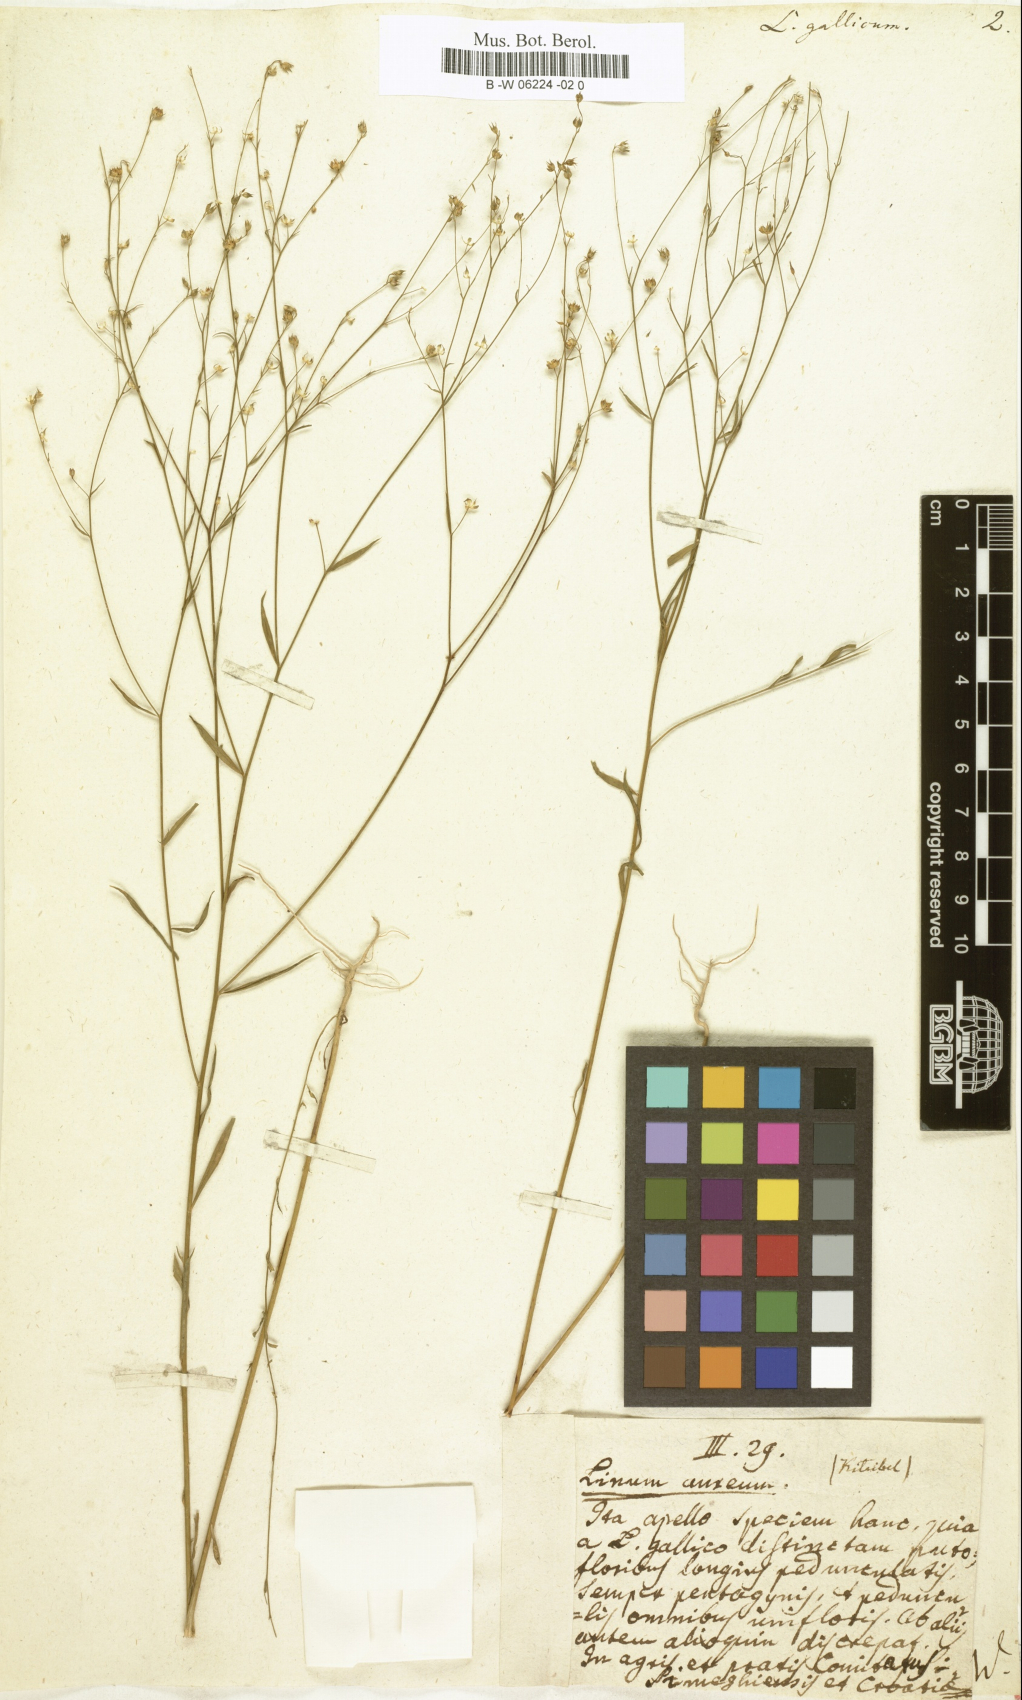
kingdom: Plantae
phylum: Tracheophyta
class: Magnoliopsida
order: Malpighiales
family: Linaceae
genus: Linum
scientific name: Linum
